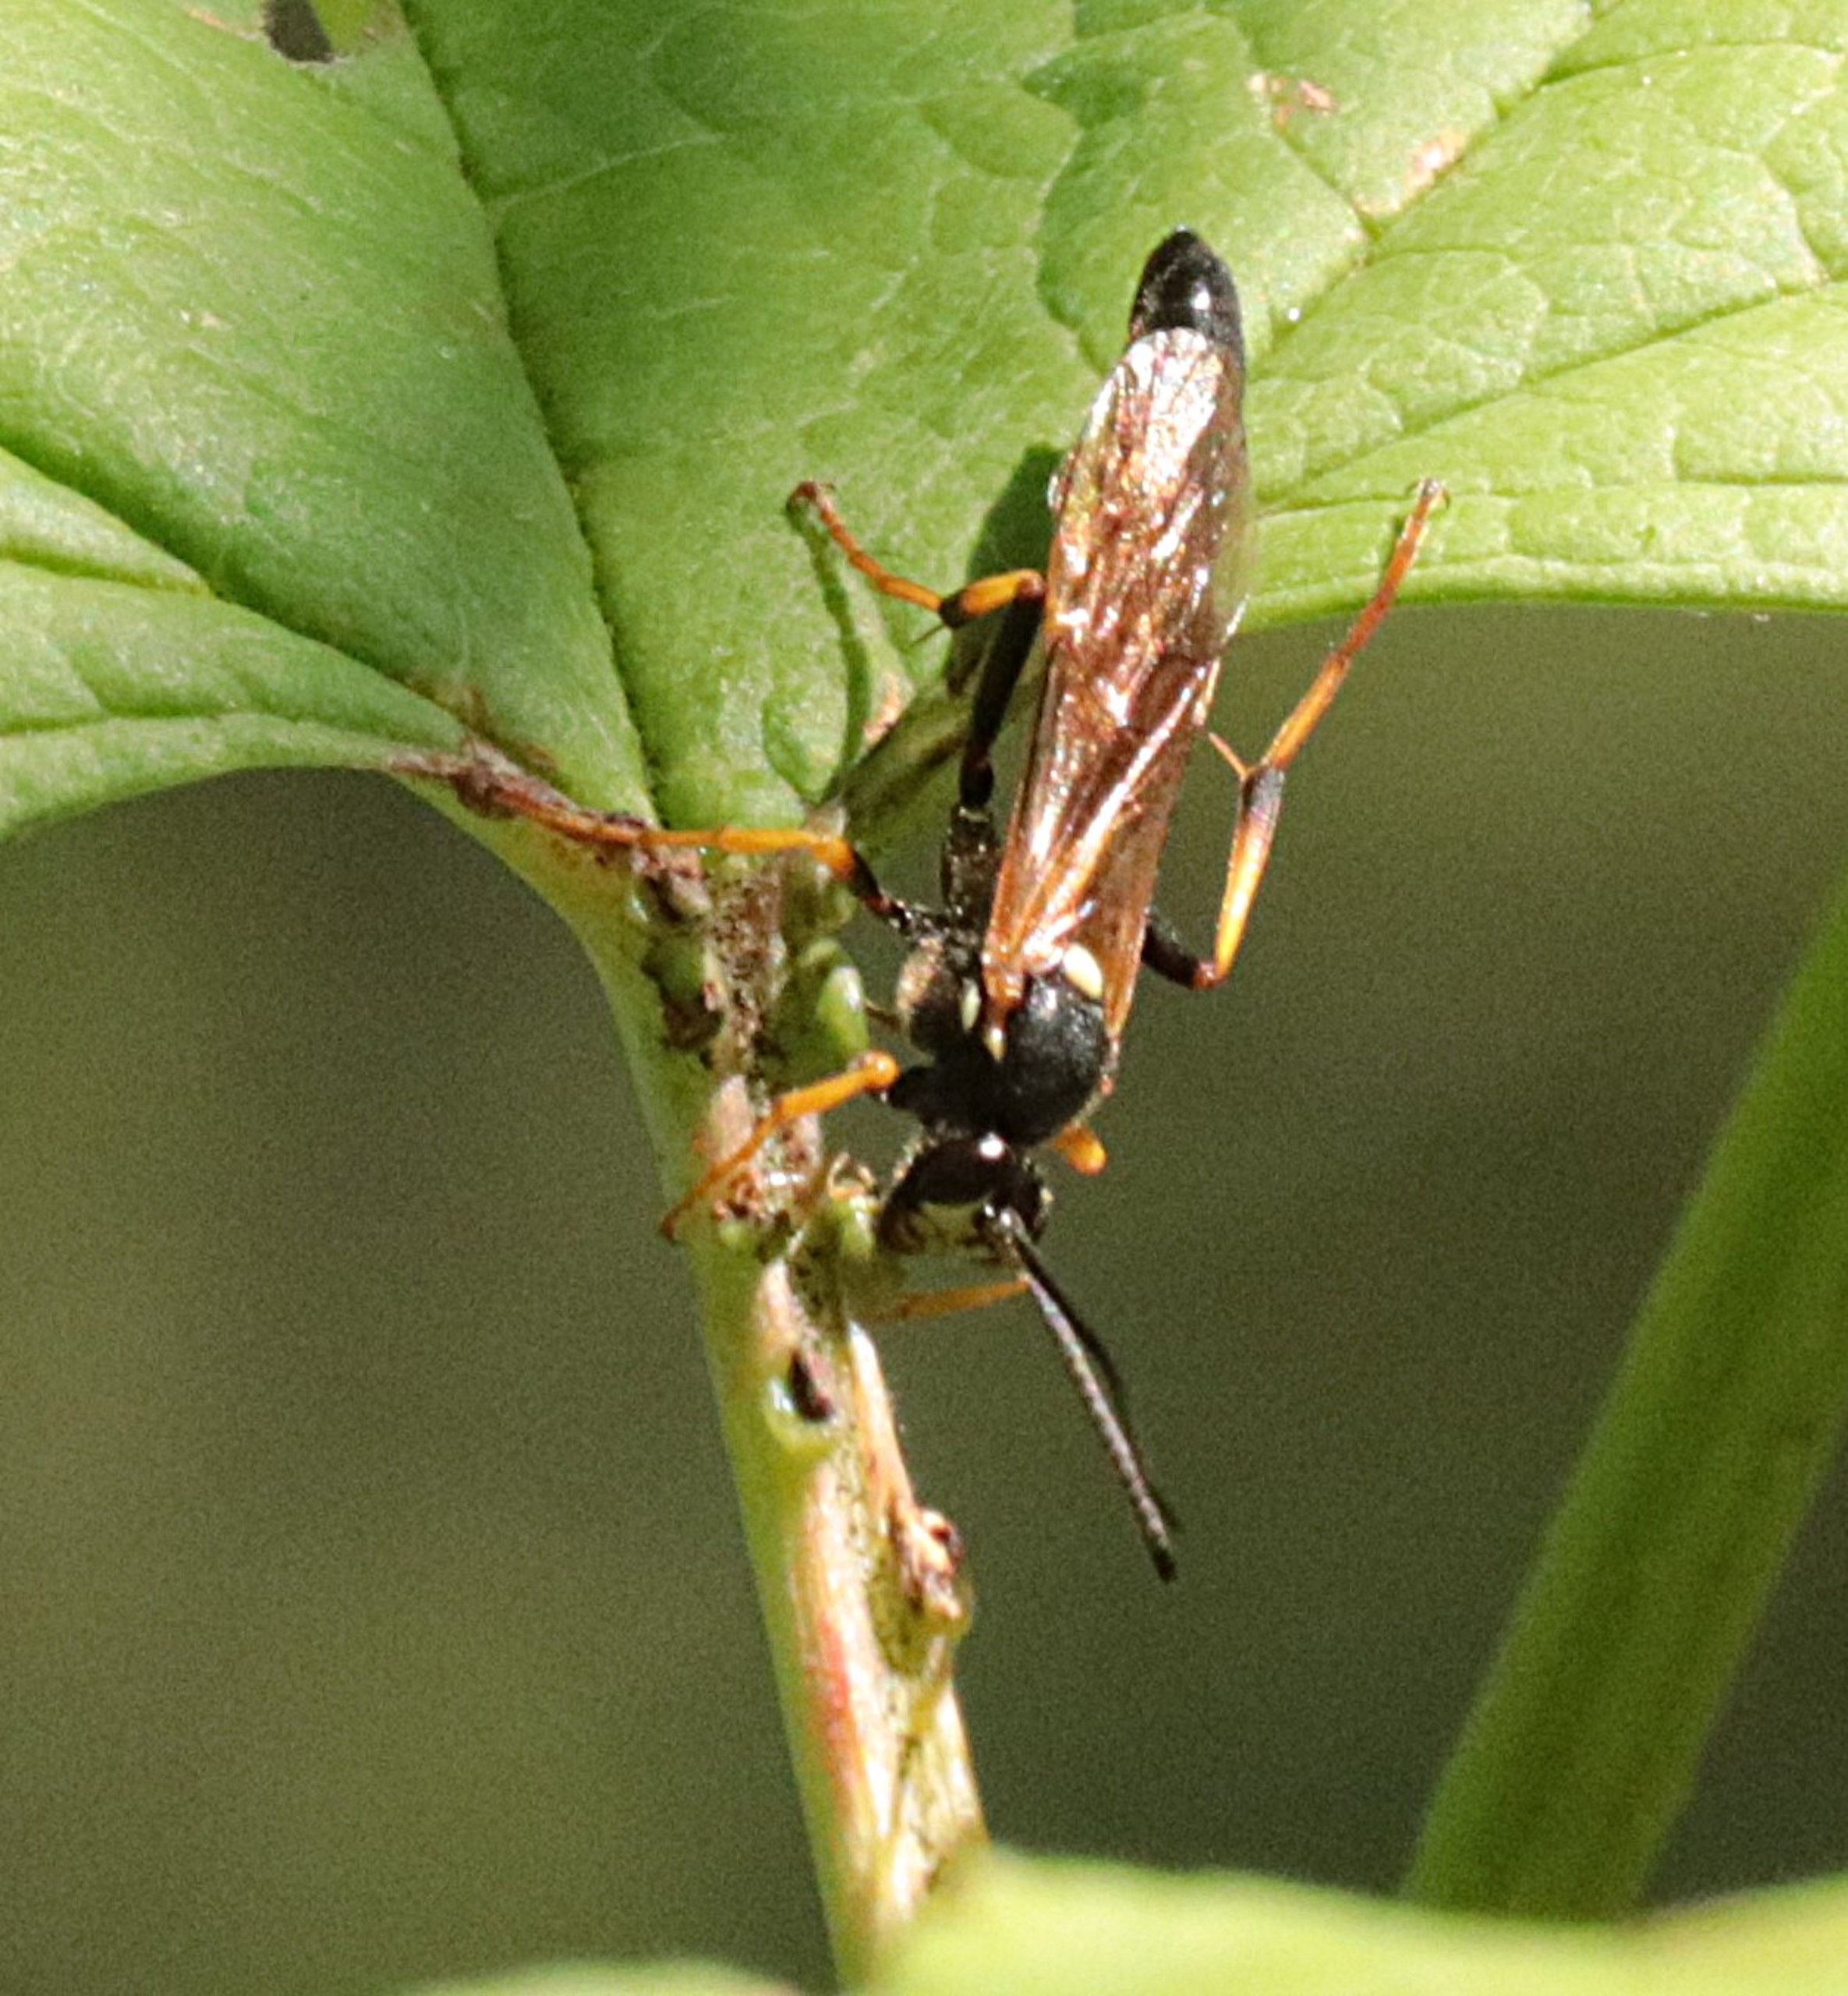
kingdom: Animalia
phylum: Arthropoda
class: Insecta
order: Hymenoptera
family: Ichneumonidae
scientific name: Ichneumonidae
